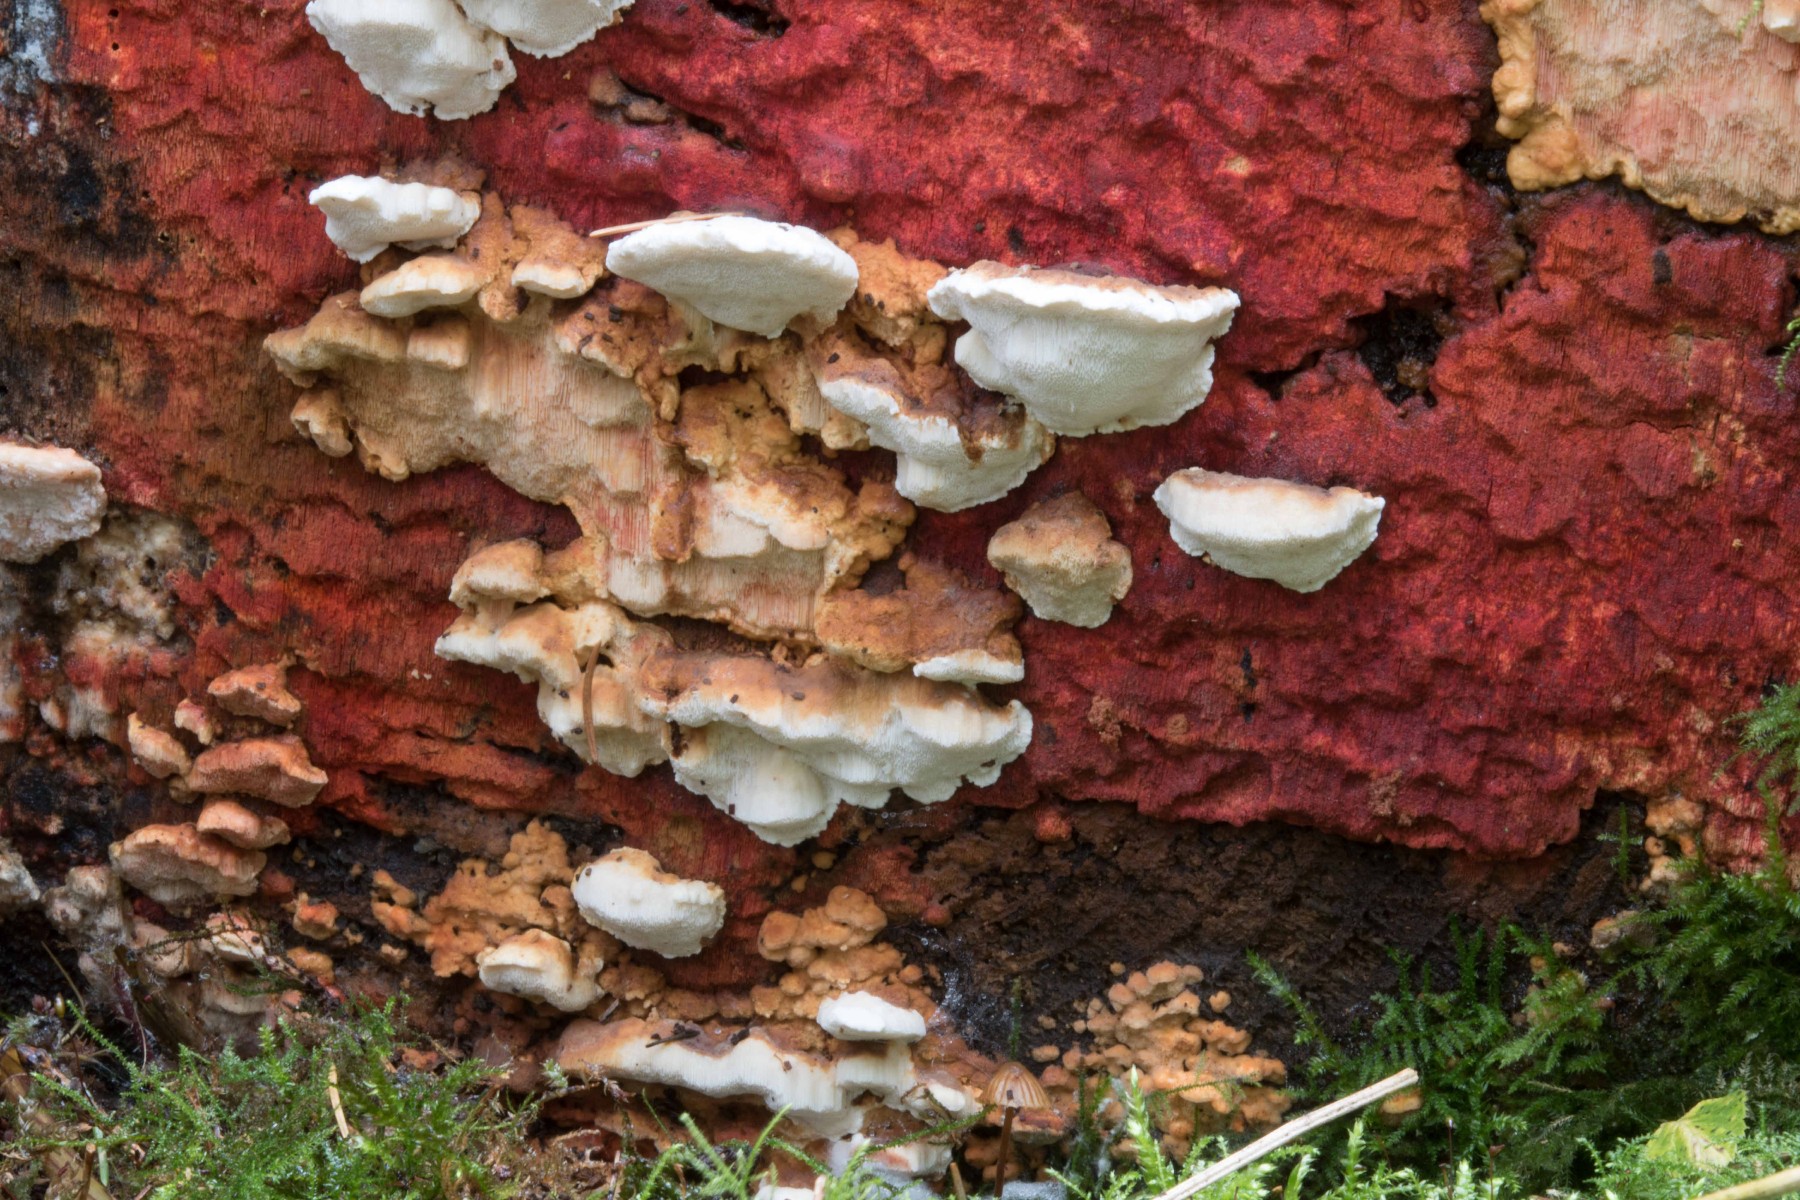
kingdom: Fungi
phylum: Basidiomycota
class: Agaricomycetes
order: Polyporales
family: Fomitopsidaceae
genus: Neoantrodia
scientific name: Neoantrodia serialis
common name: række-sejporesvamp
